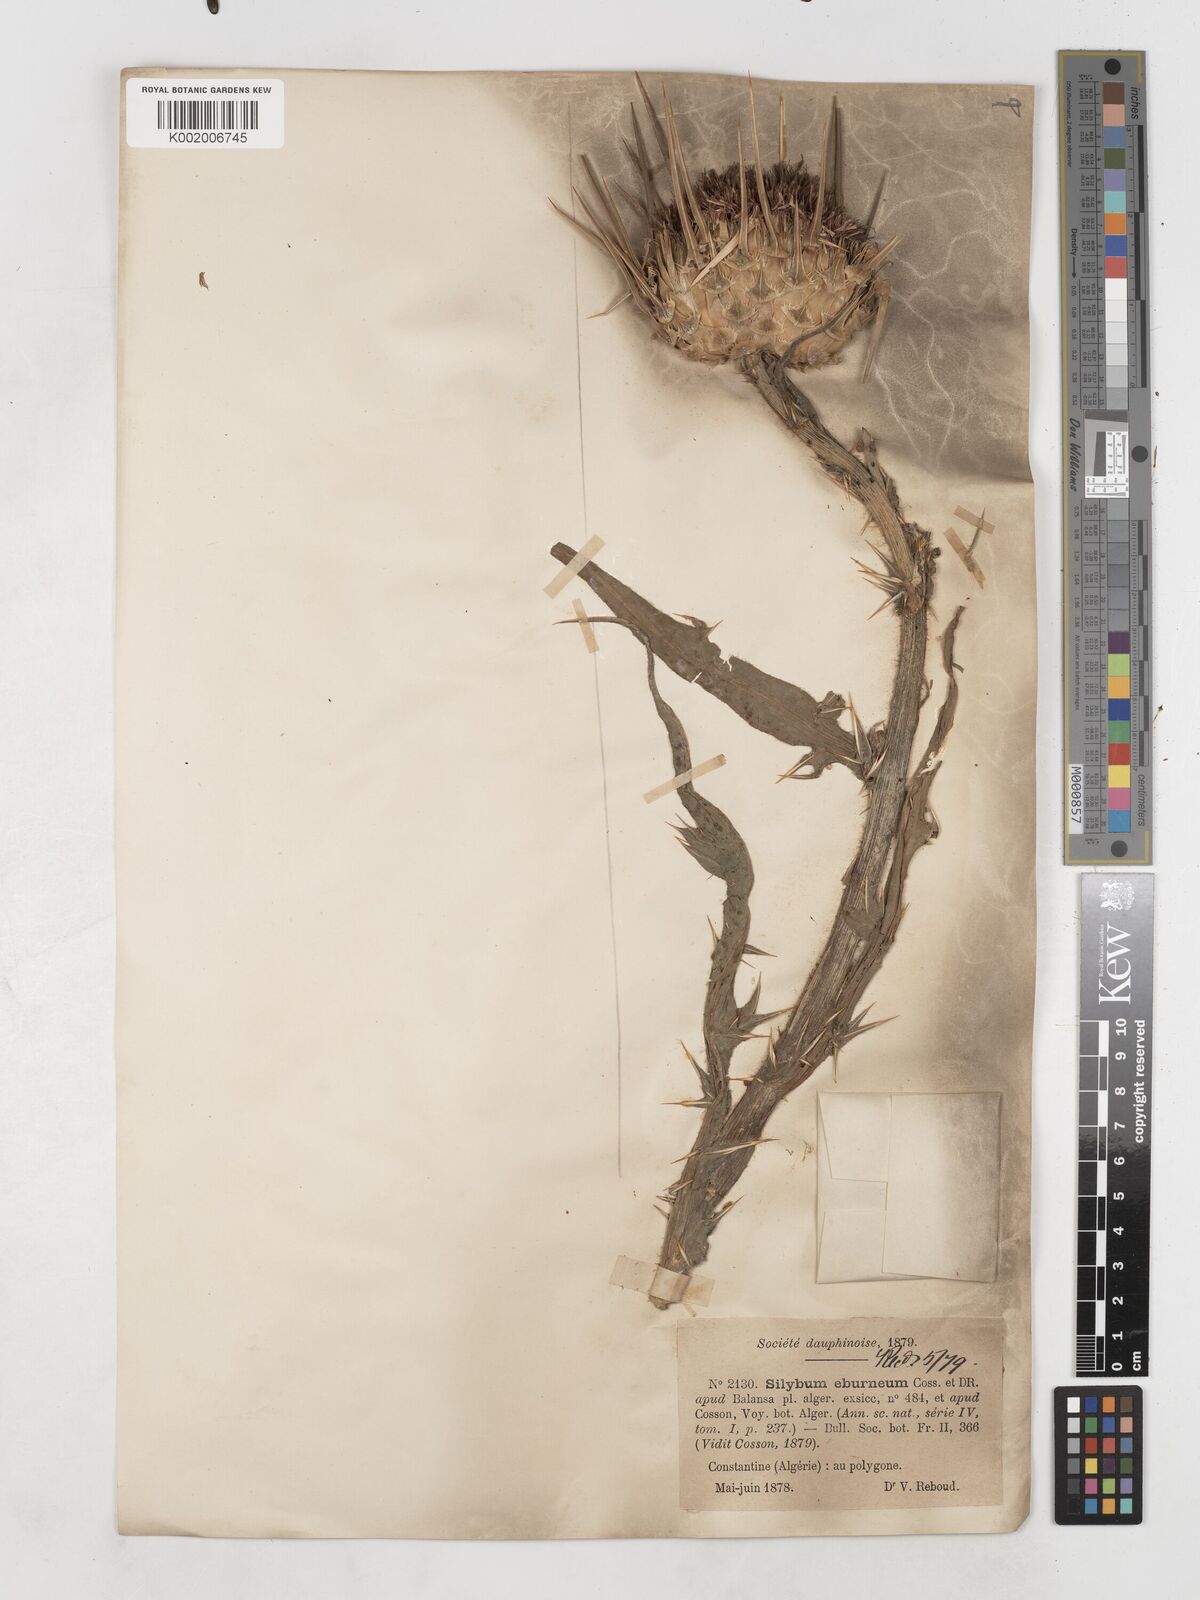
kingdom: Plantae
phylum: Tracheophyta
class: Magnoliopsida
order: Asterales
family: Asteraceae
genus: Silybum
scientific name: Silybum eburneum
